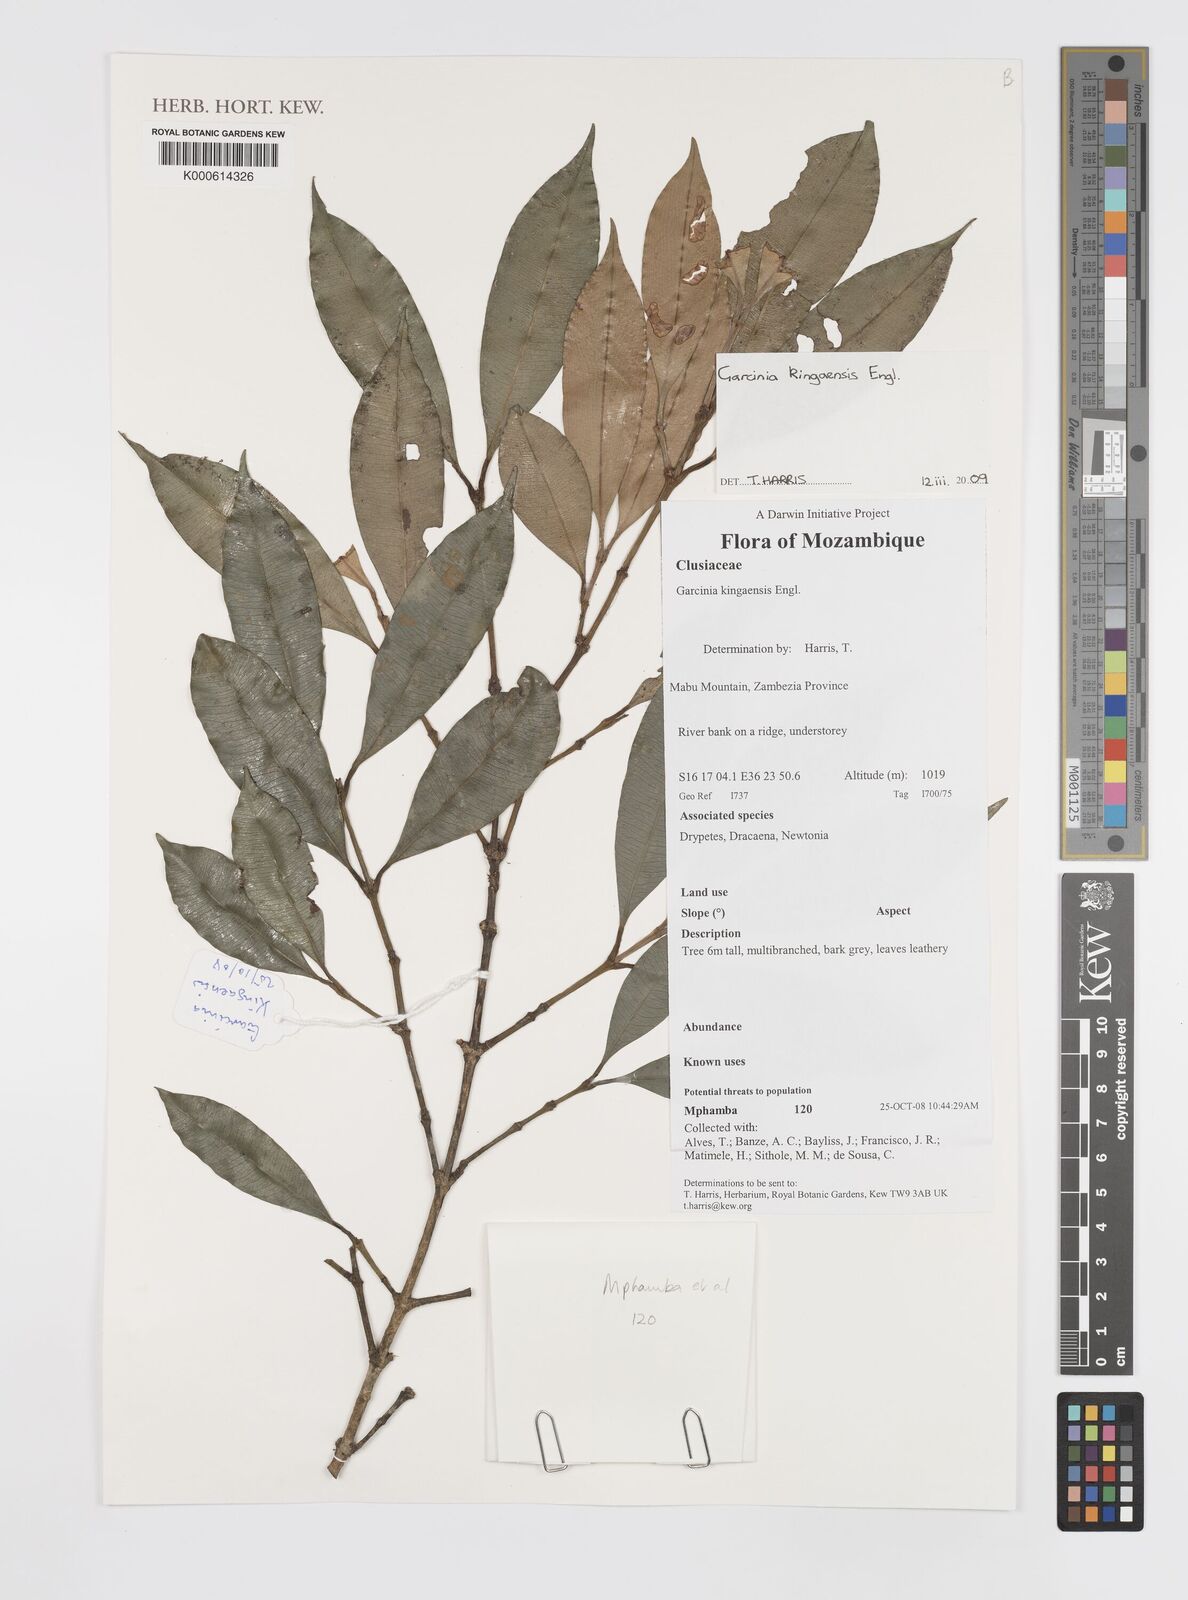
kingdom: Plantae
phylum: Tracheophyta
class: Magnoliopsida
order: Malpighiales
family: Clusiaceae
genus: Garcinia
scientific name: Garcinia kingaensis
